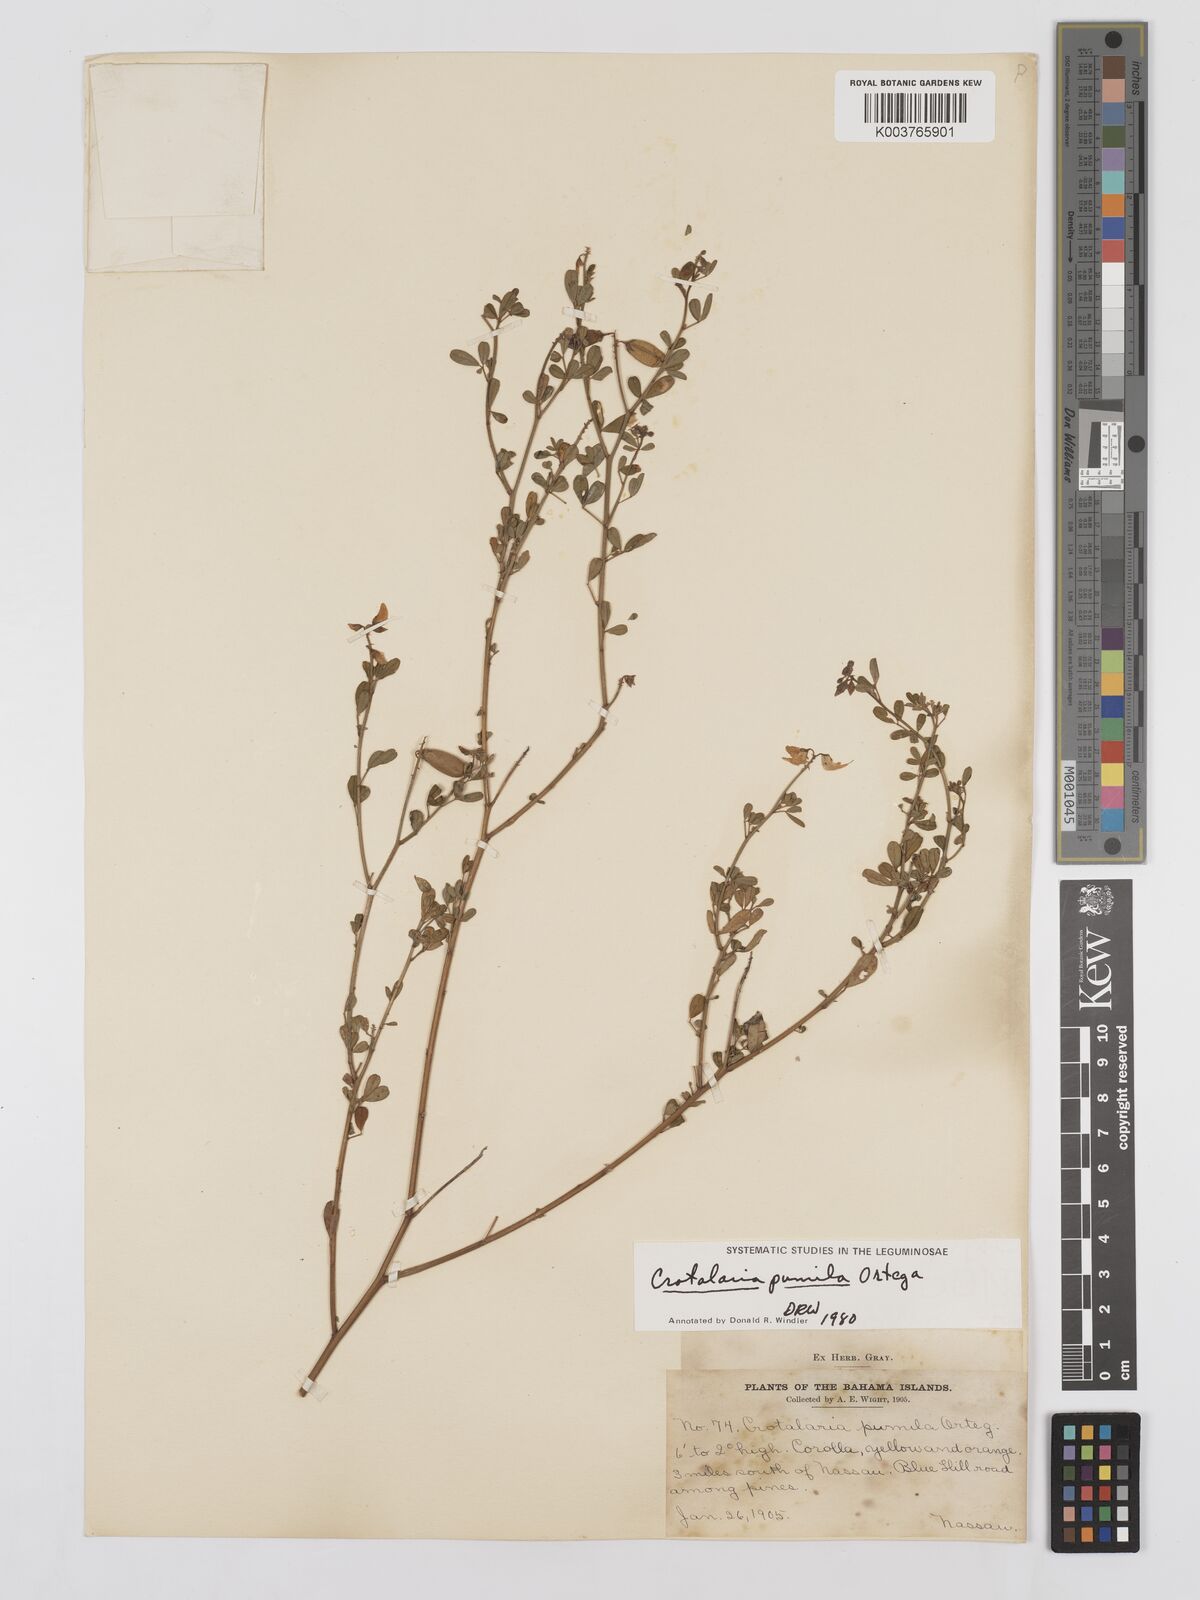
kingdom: Plantae
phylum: Tracheophyta
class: Magnoliopsida
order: Fabales
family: Fabaceae
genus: Crotalaria
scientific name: Crotalaria pumila
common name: Low rattlebox
